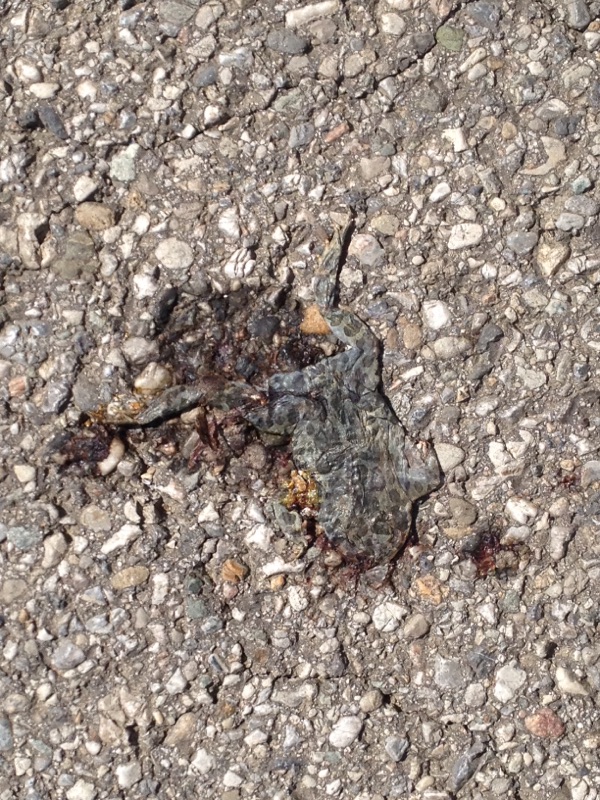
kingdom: Animalia
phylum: Chordata
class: Amphibia
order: Anura
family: Bufonidae
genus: Bufotes
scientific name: Bufotes viridis
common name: European green toad
